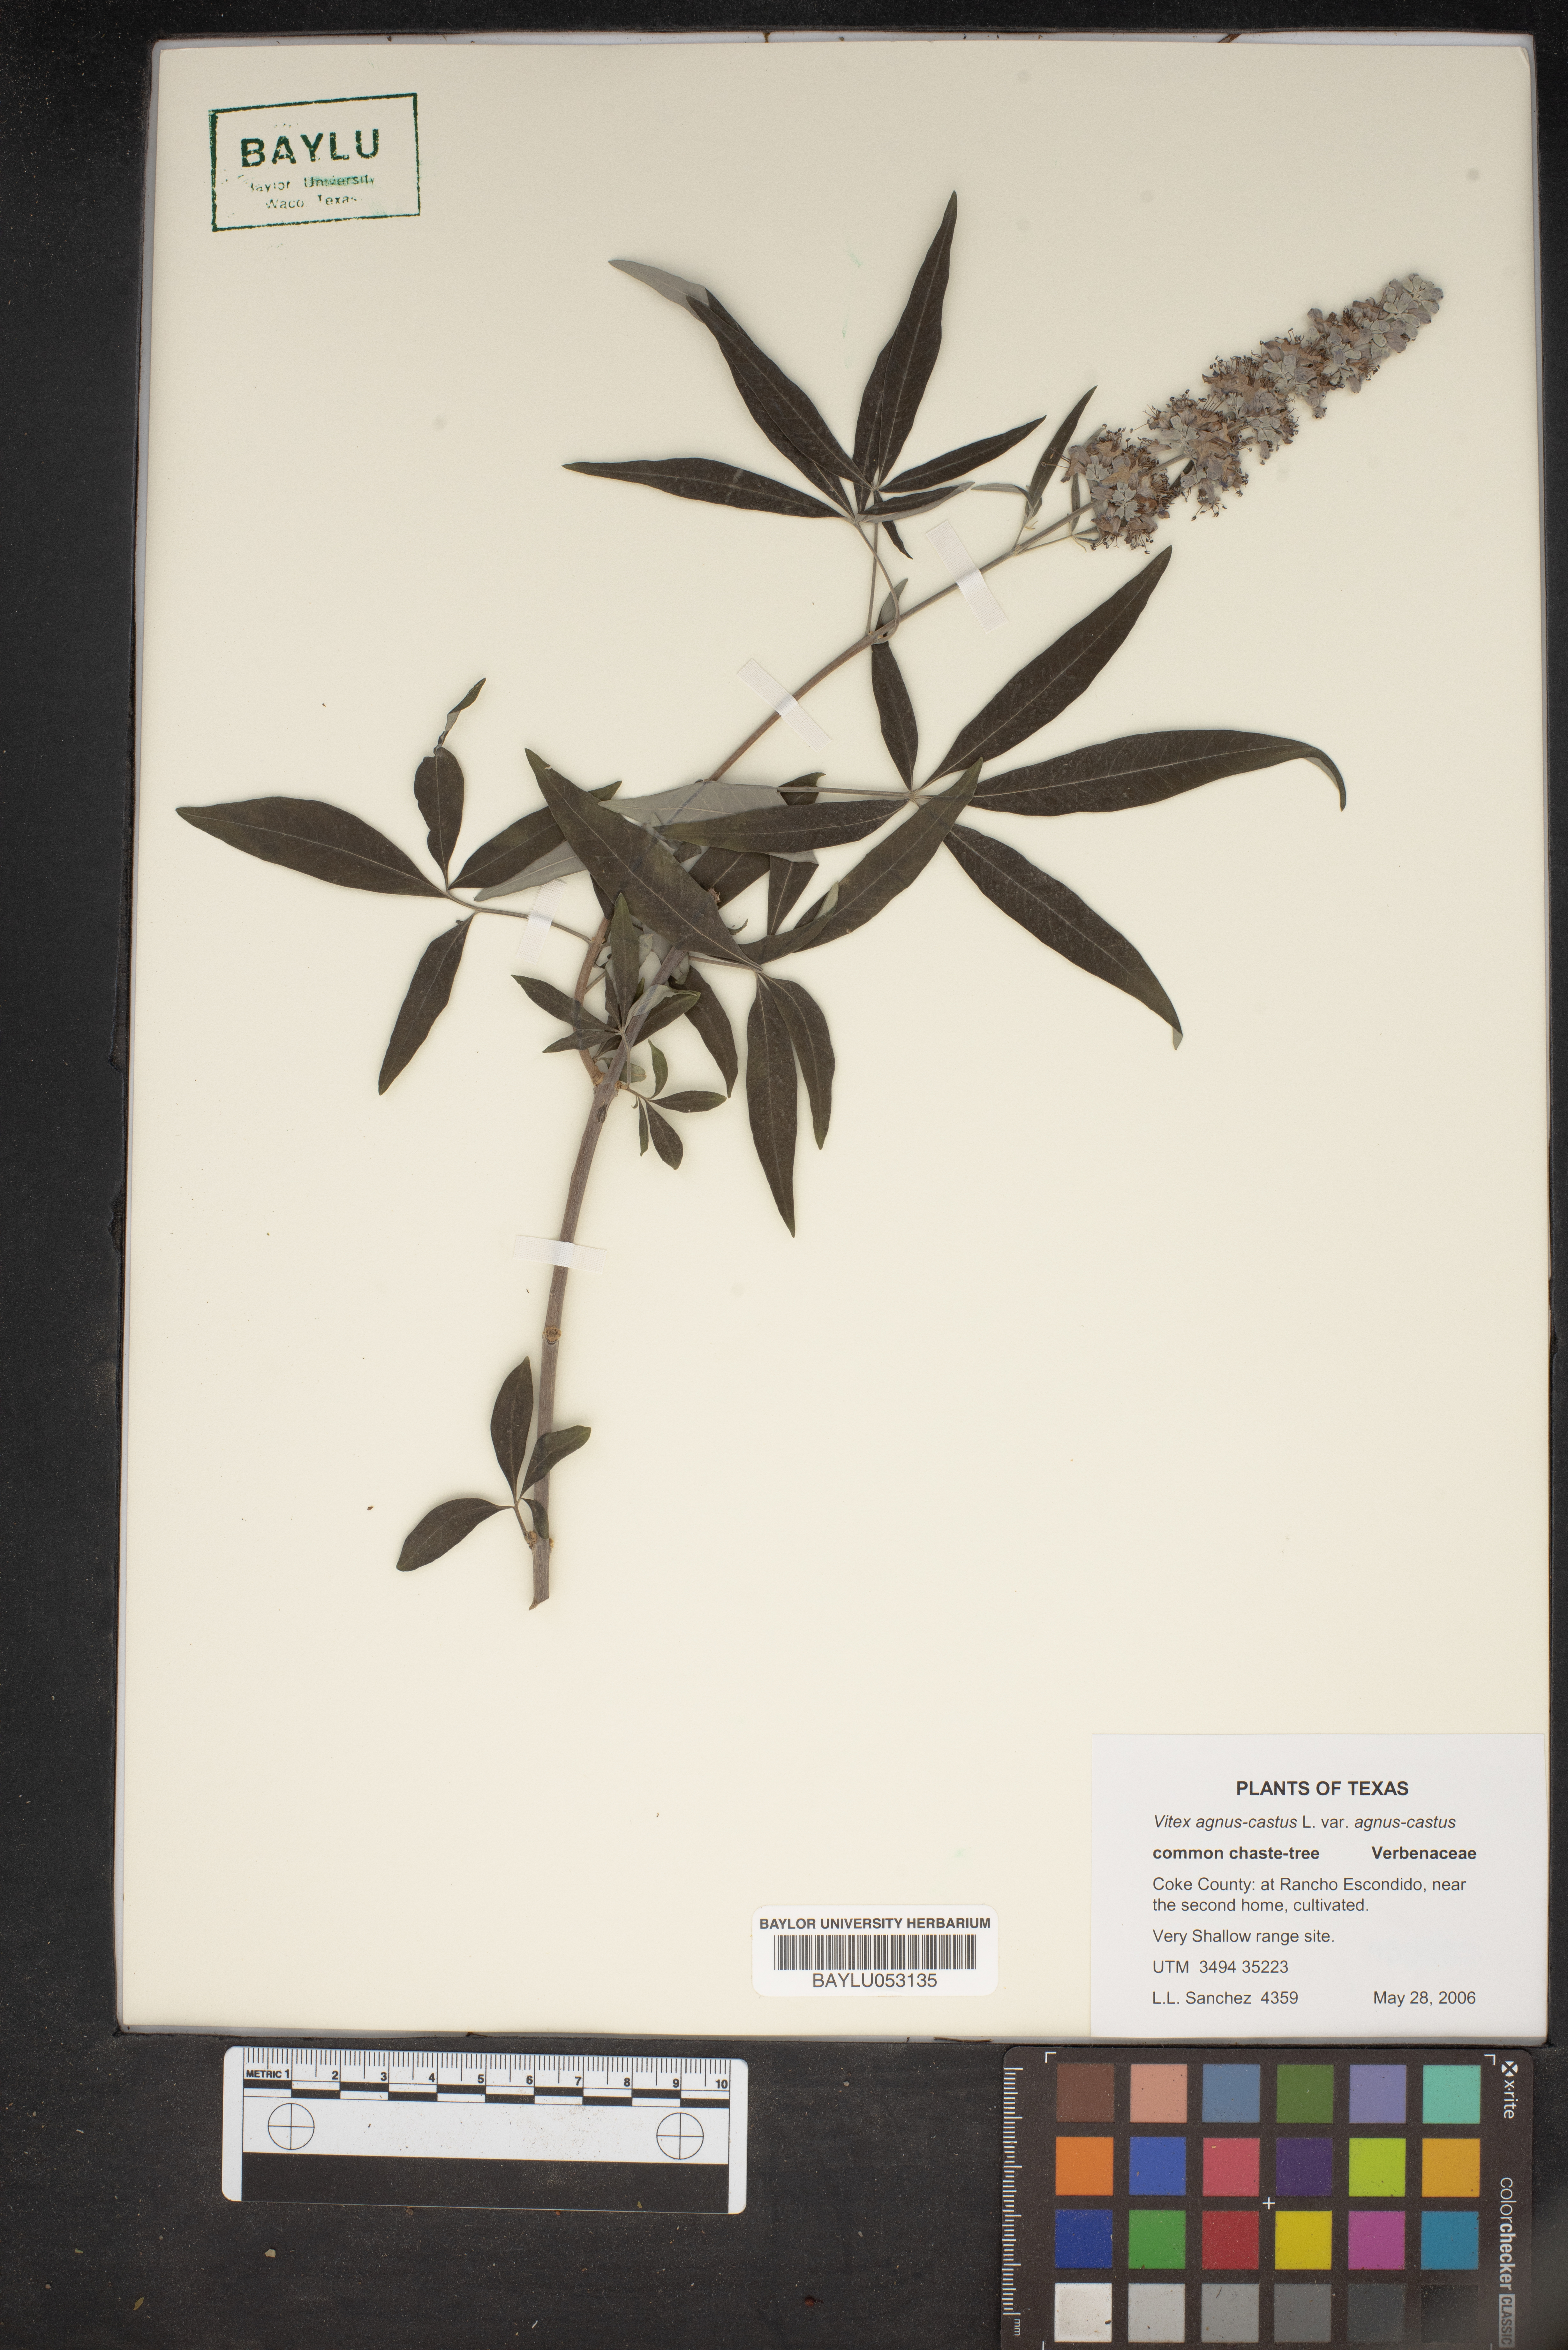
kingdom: Plantae
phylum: Tracheophyta
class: Magnoliopsida
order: Lamiales
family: Lamiaceae
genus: Vitex
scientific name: Vitex agnus-castus
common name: Chasteberry
